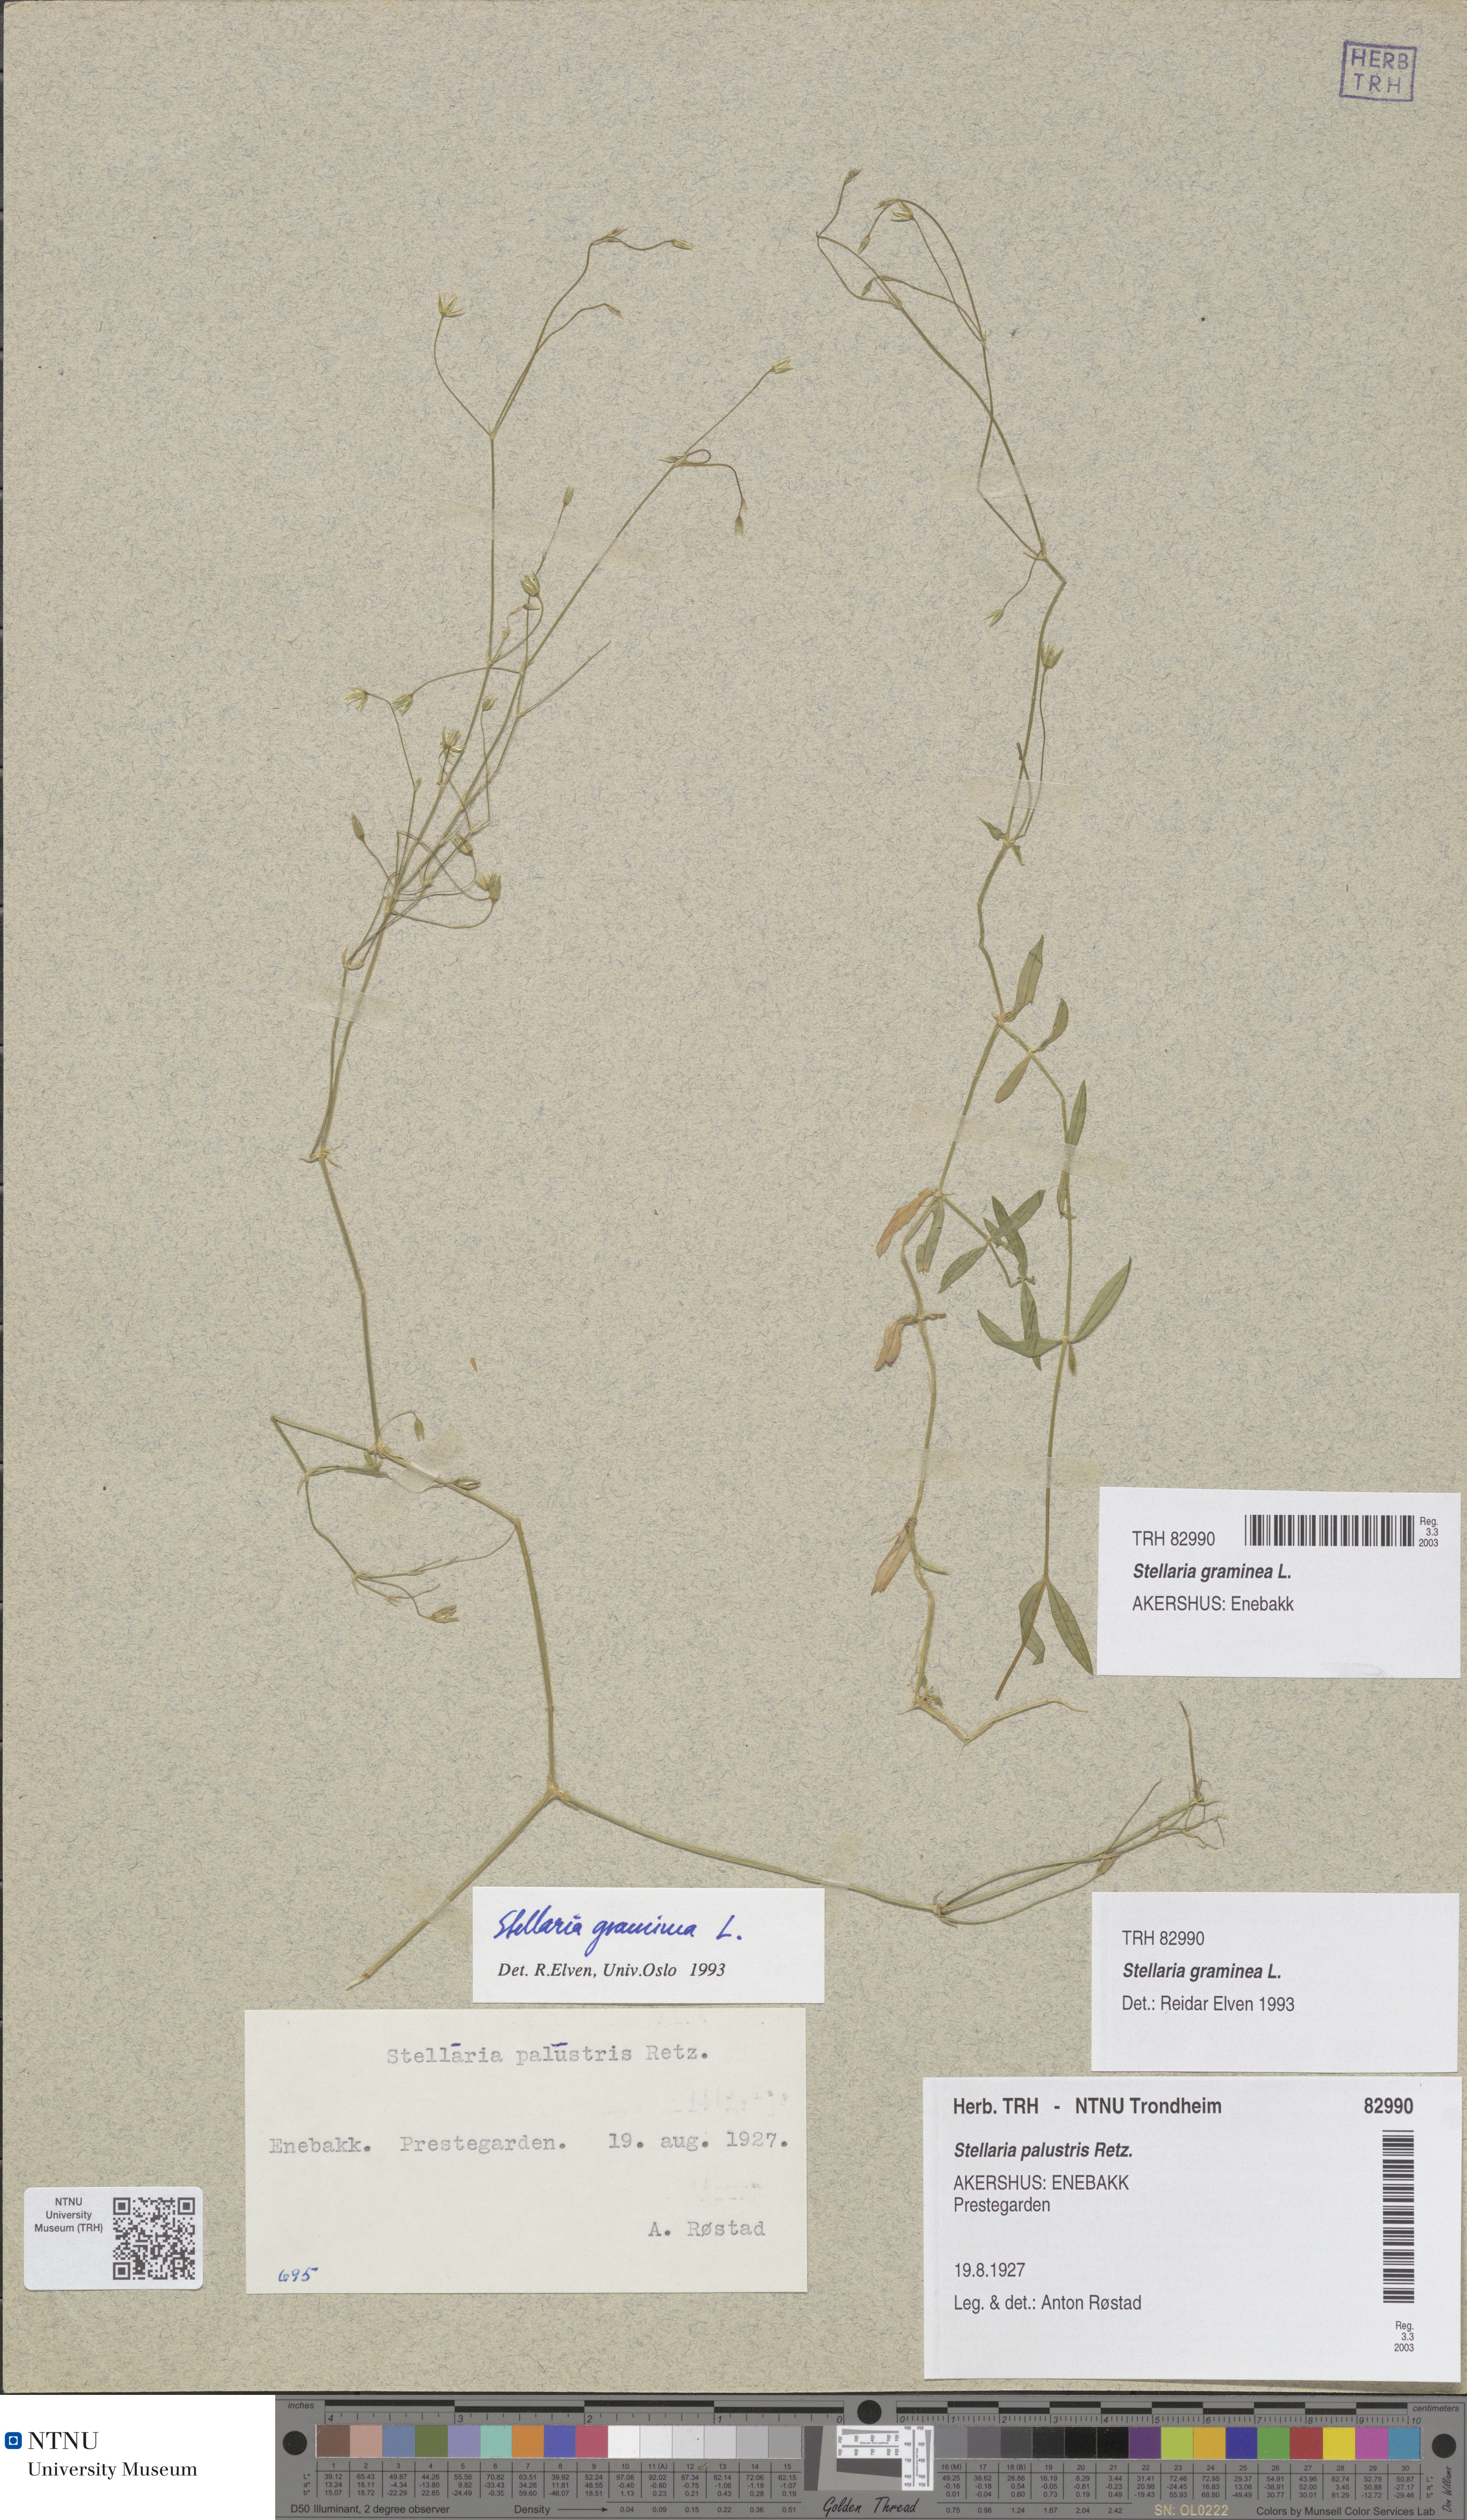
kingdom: Plantae
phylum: Tracheophyta
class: Magnoliopsida
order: Caryophyllales
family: Caryophyllaceae
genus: Stellaria
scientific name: Stellaria graminea
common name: Grass-like starwort
